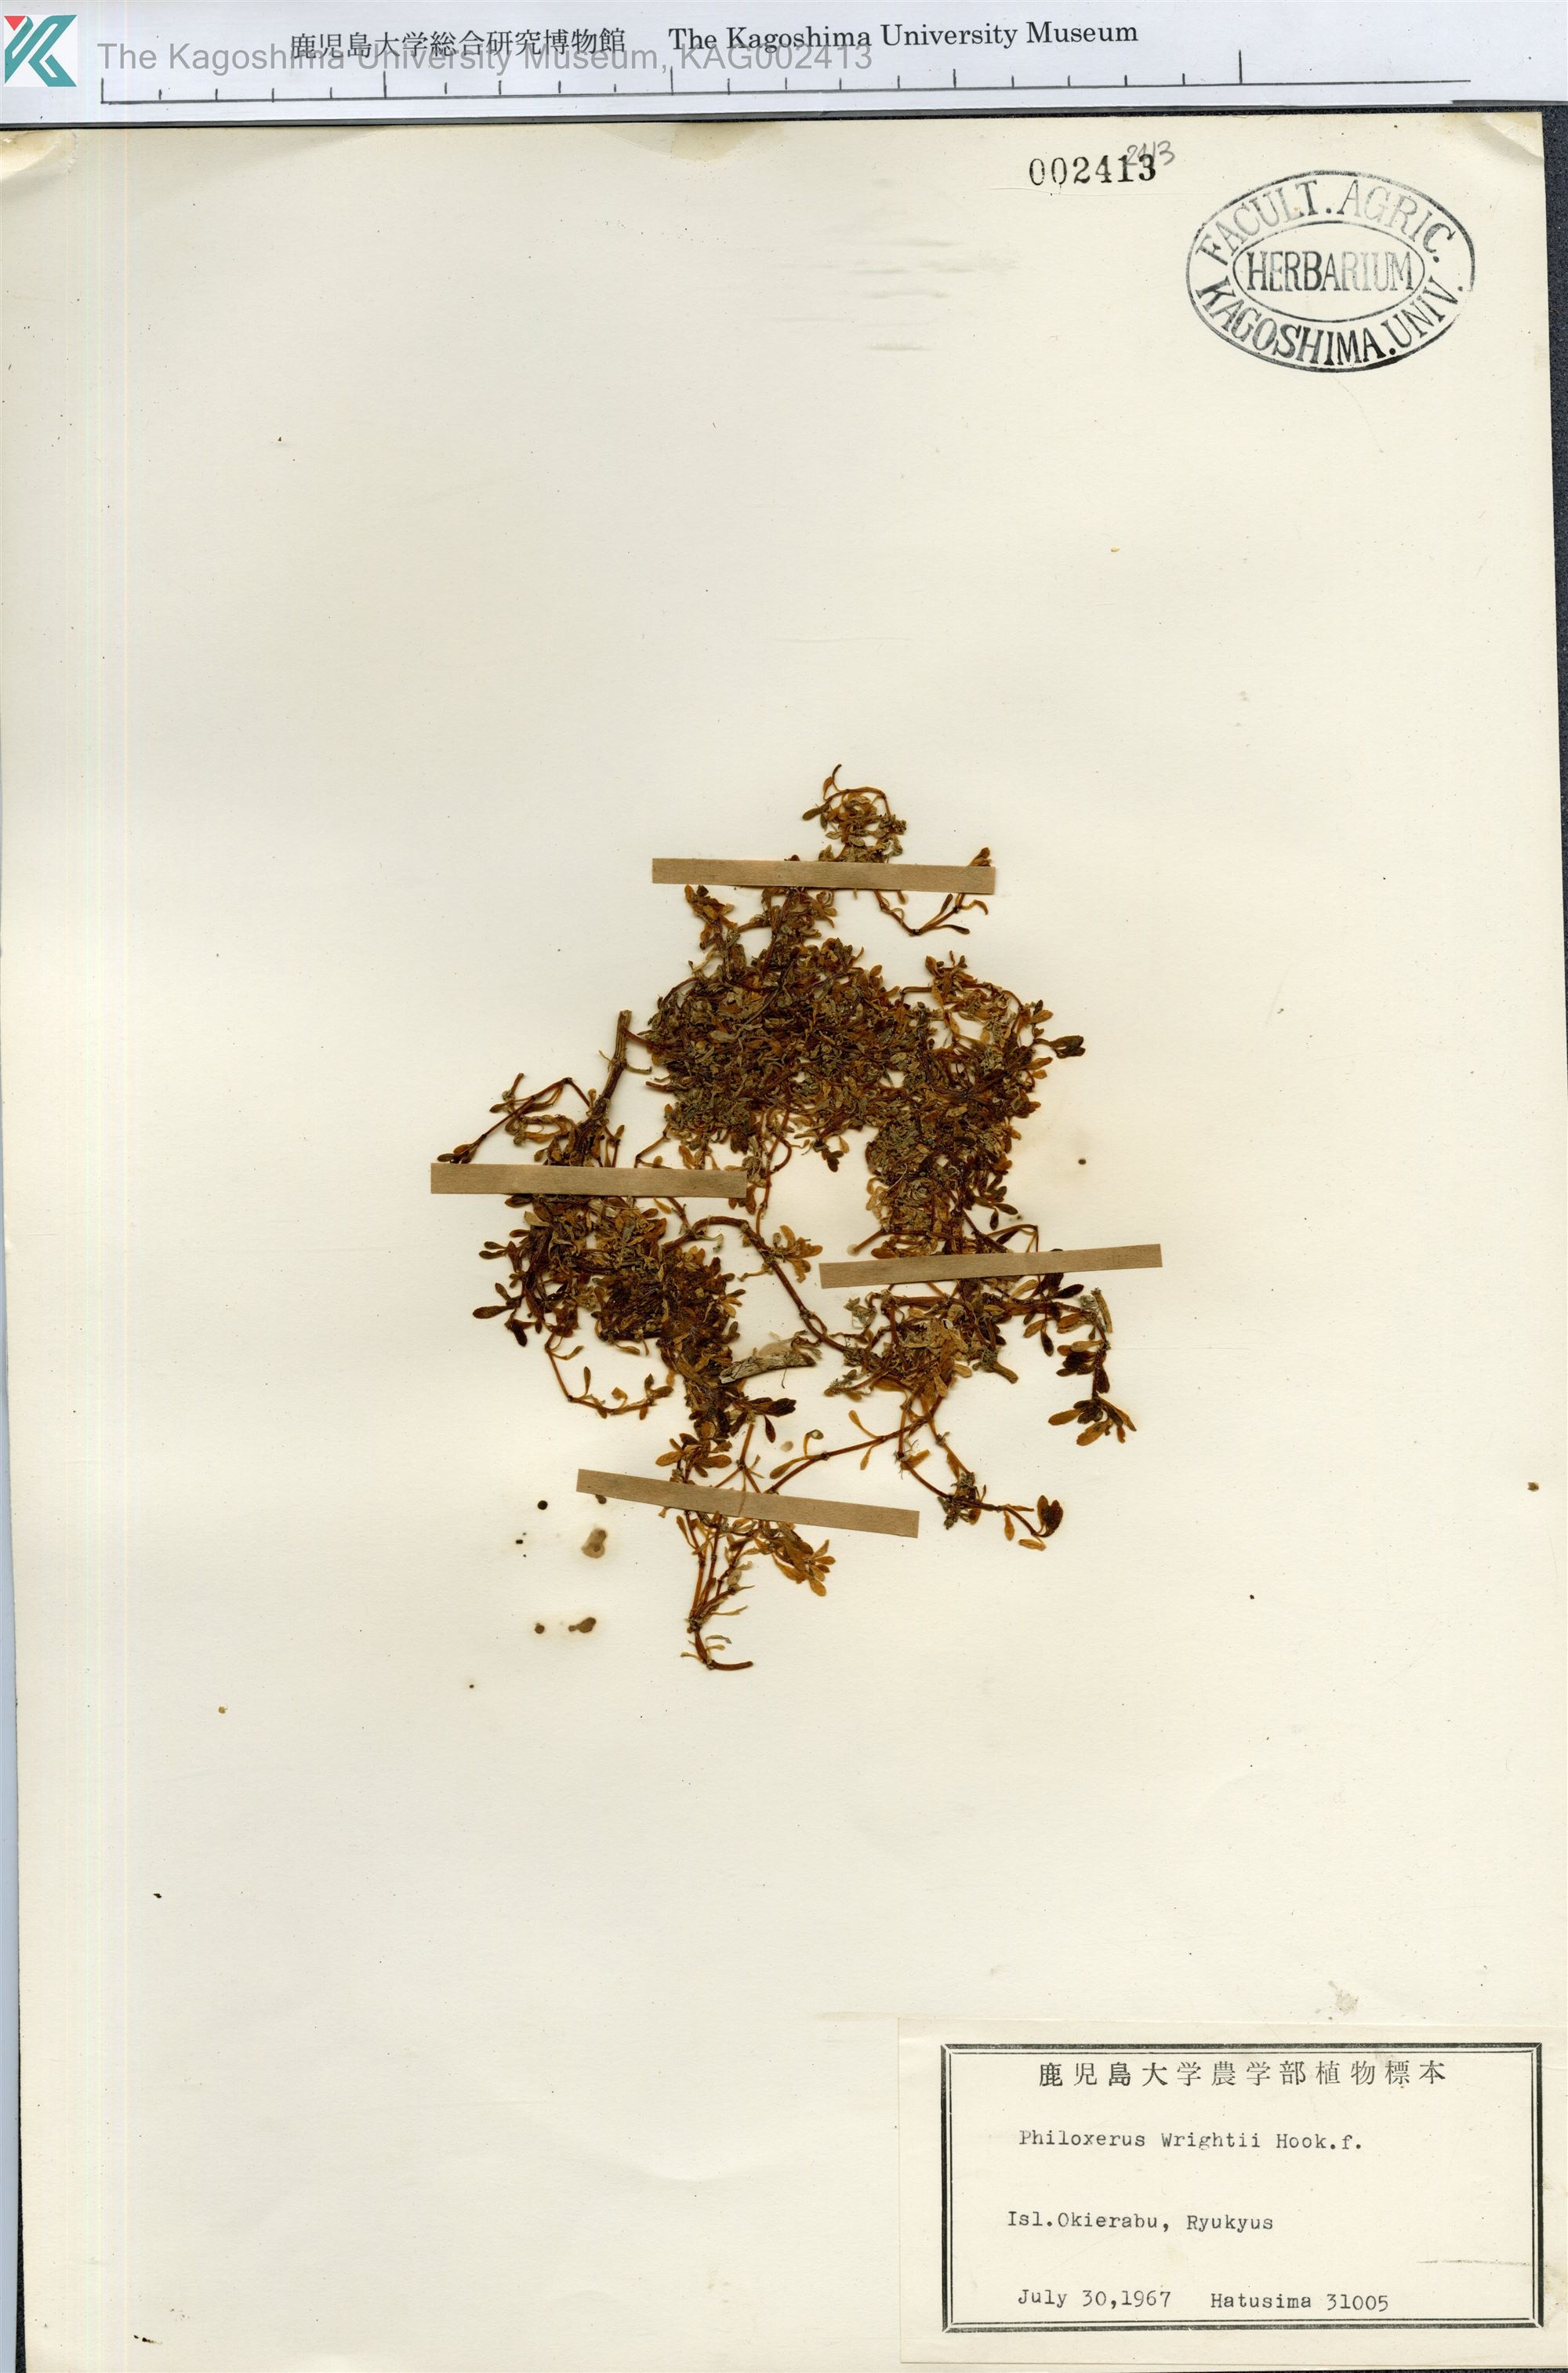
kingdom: Plantae
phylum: Tracheophyta
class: Magnoliopsida
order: Caryophyllales
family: Amaranthaceae
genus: Gomphrena
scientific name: Gomphrena wrightii
